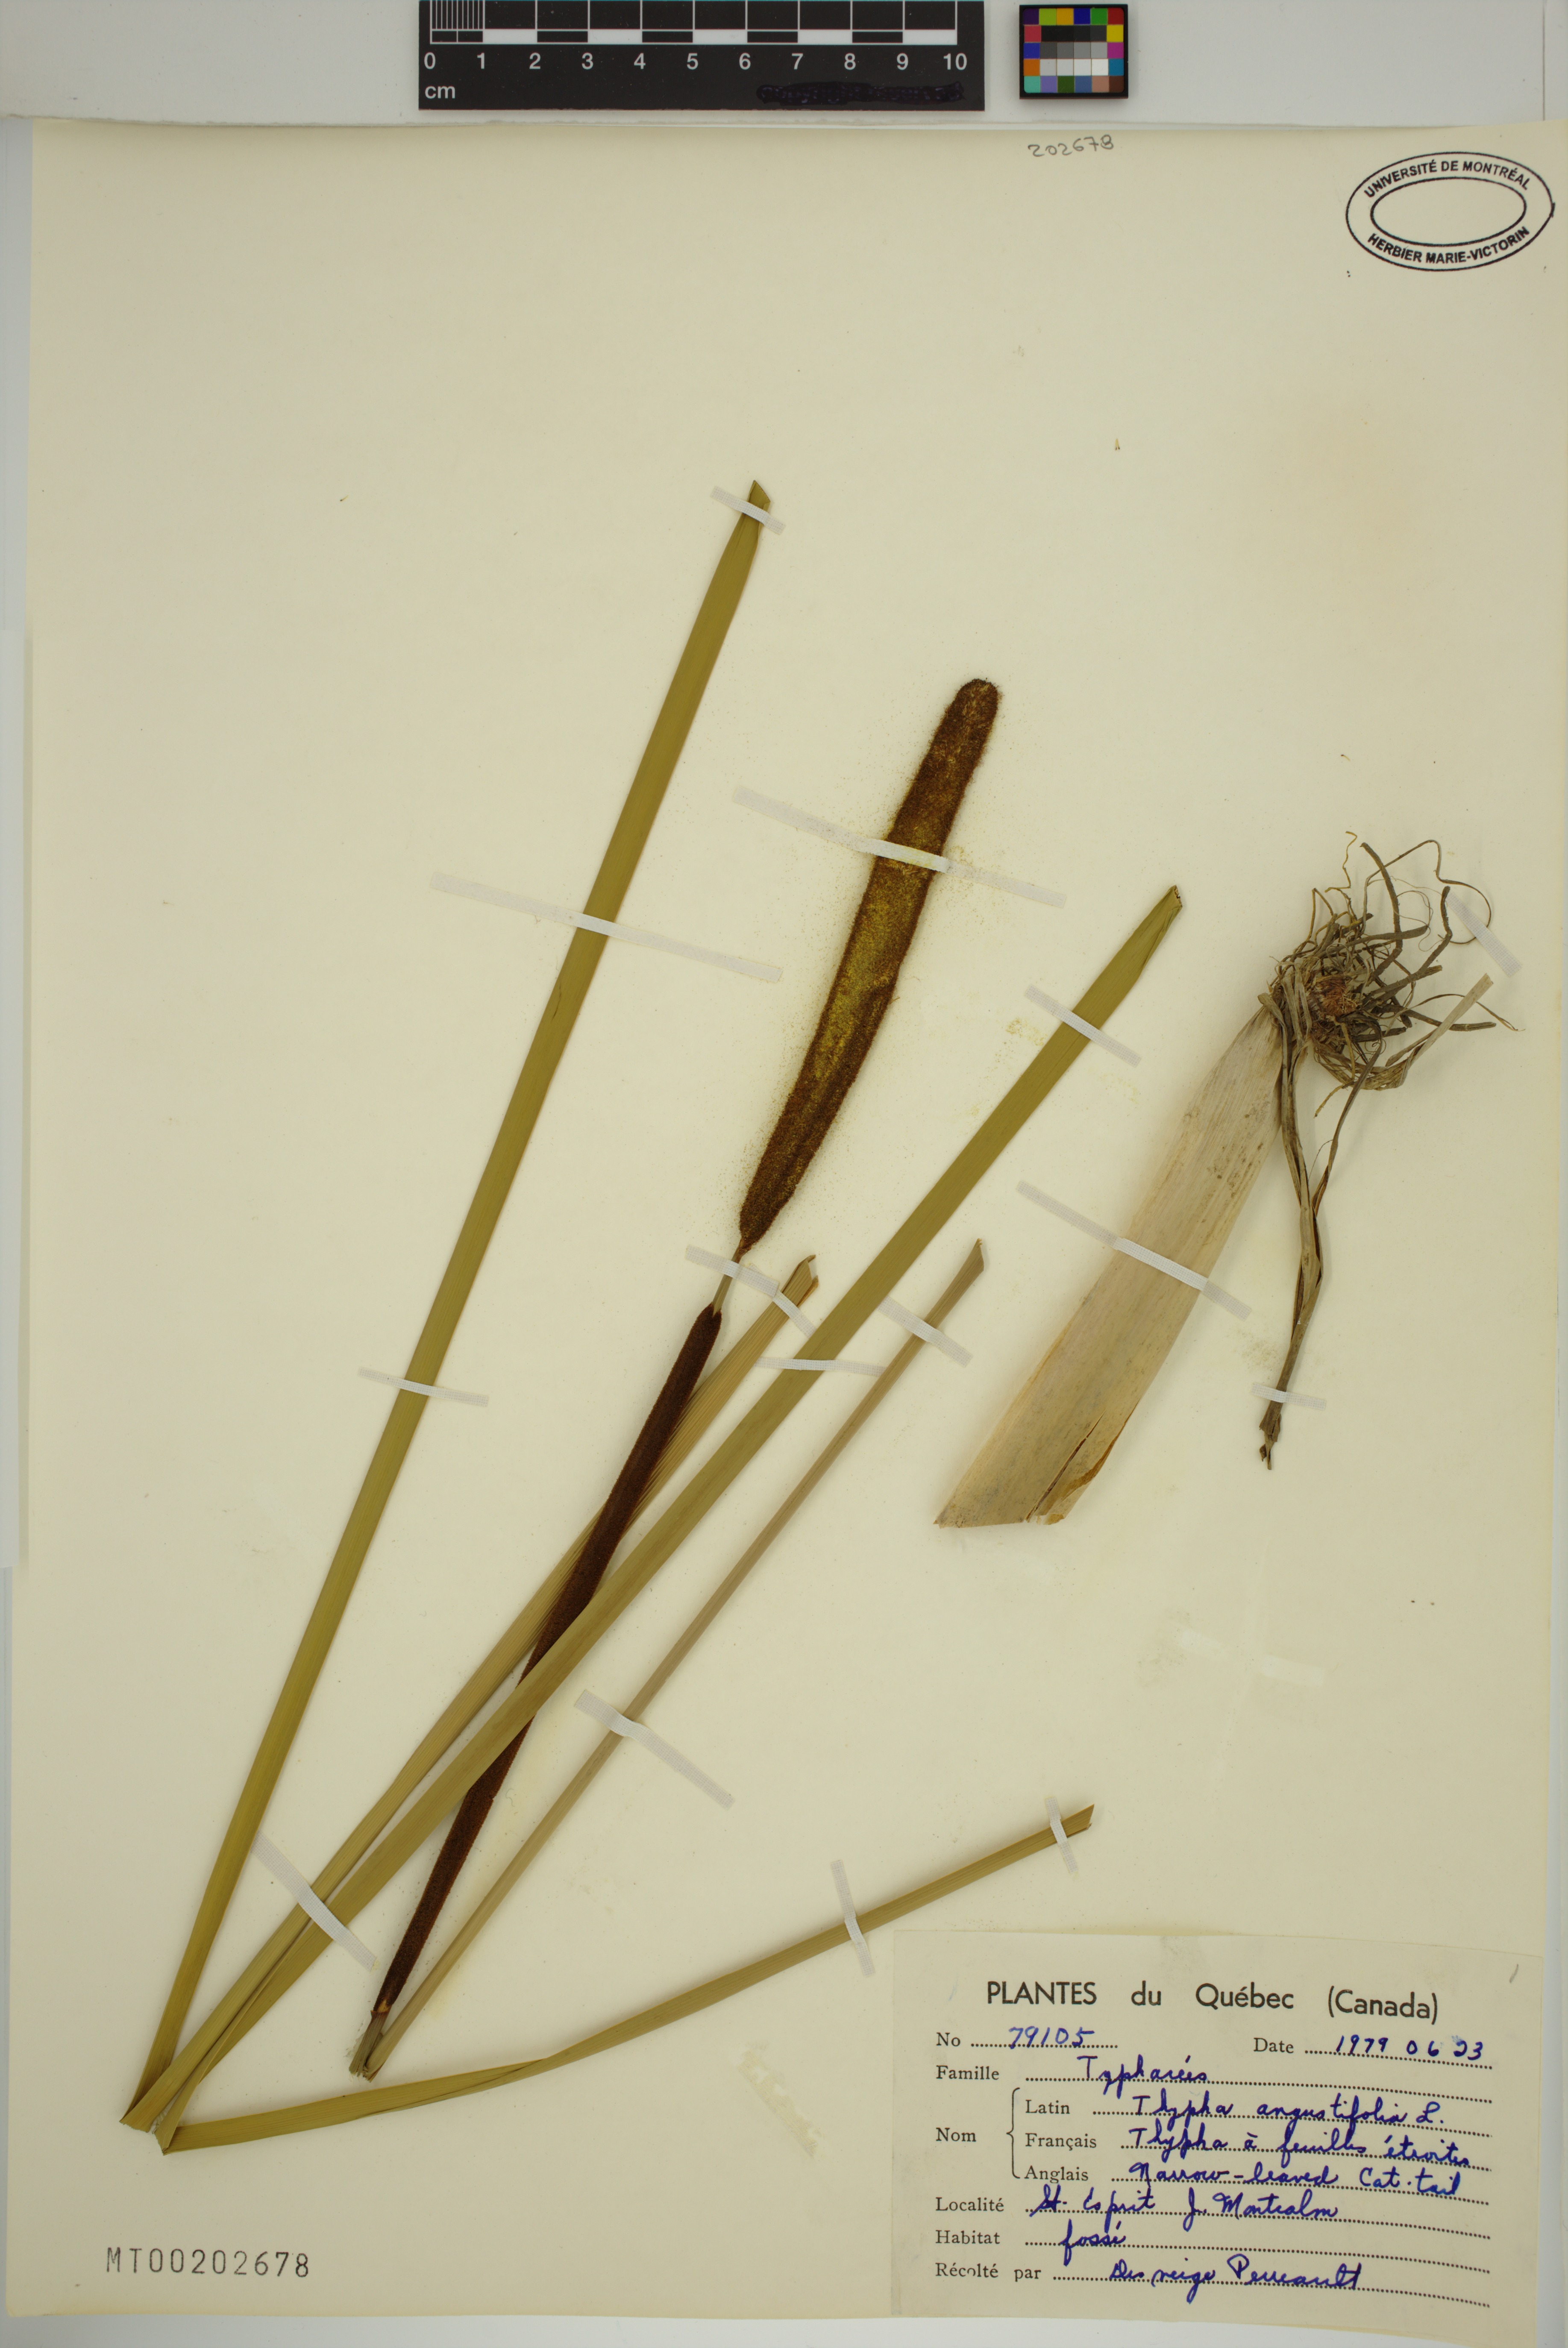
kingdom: Plantae
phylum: Tracheophyta
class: Liliopsida
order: Poales
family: Typhaceae
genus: Typha
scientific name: Typha angustifolia
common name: Lesser bulrush
